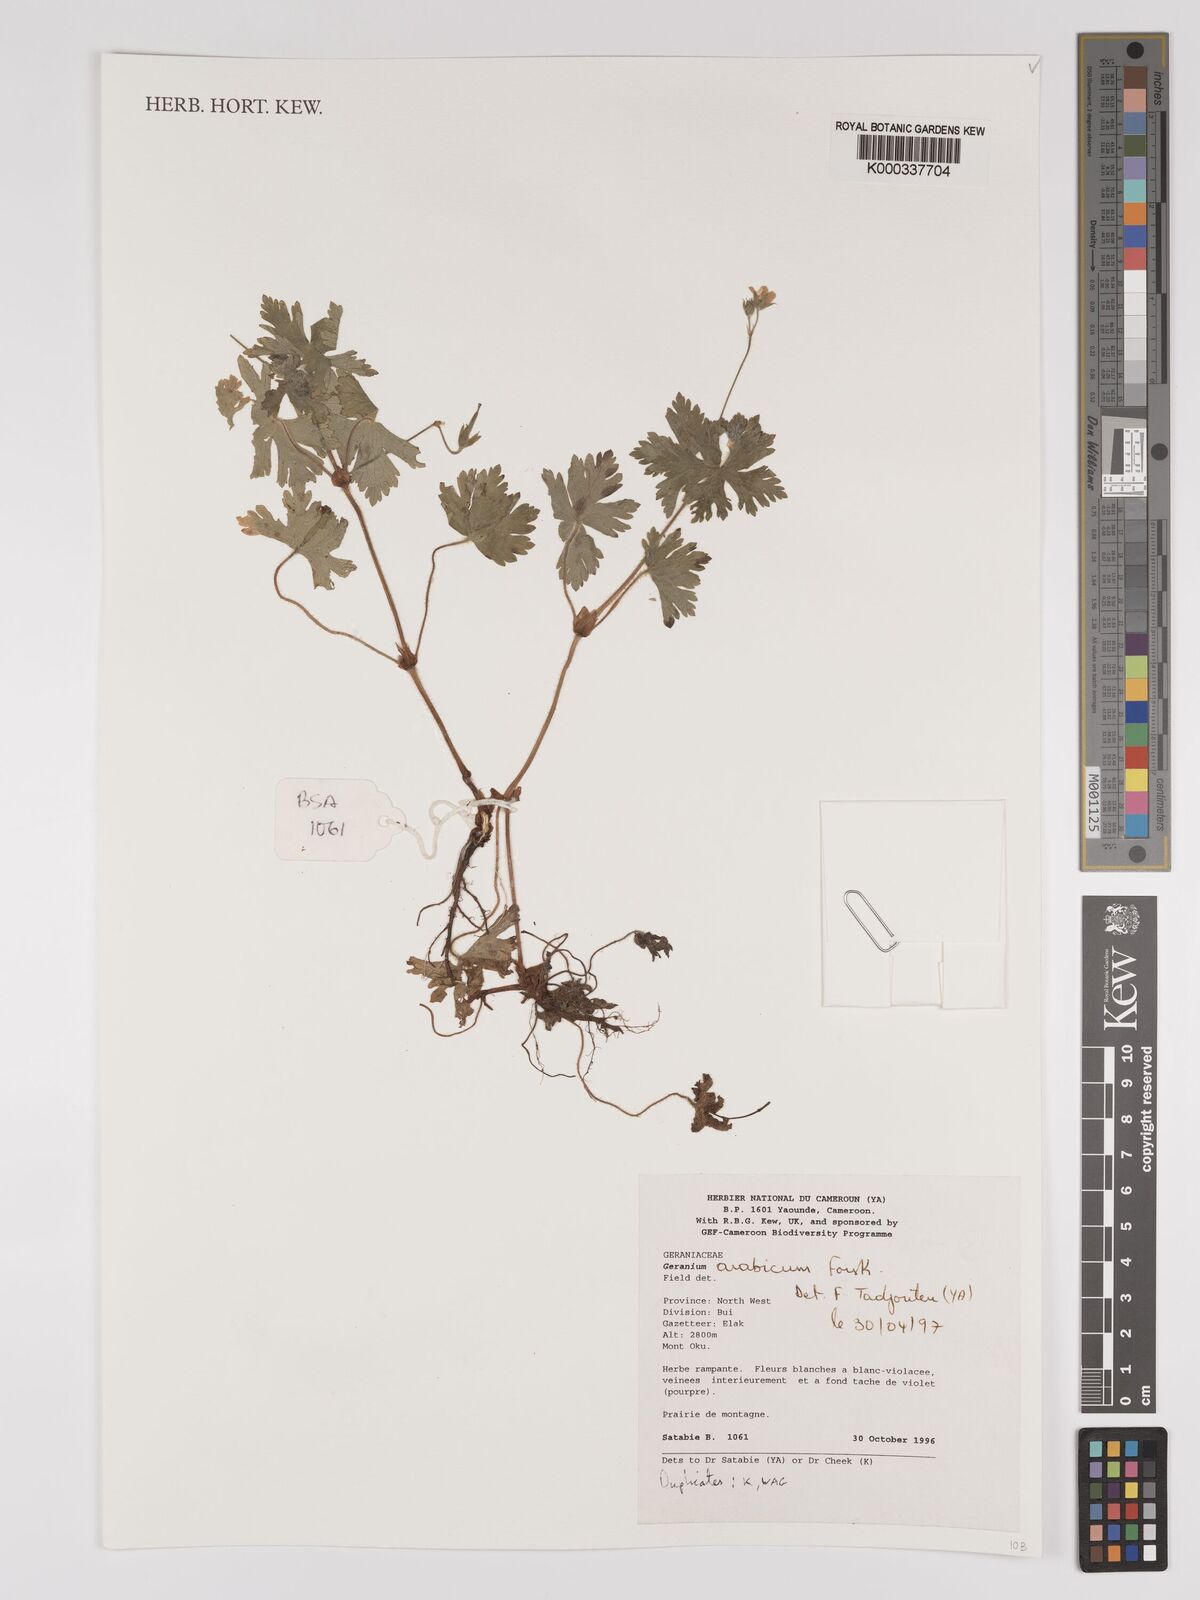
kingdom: Plantae
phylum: Tracheophyta
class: Magnoliopsida
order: Geraniales
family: Geraniaceae
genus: Geranium
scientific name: Geranium arabicum
